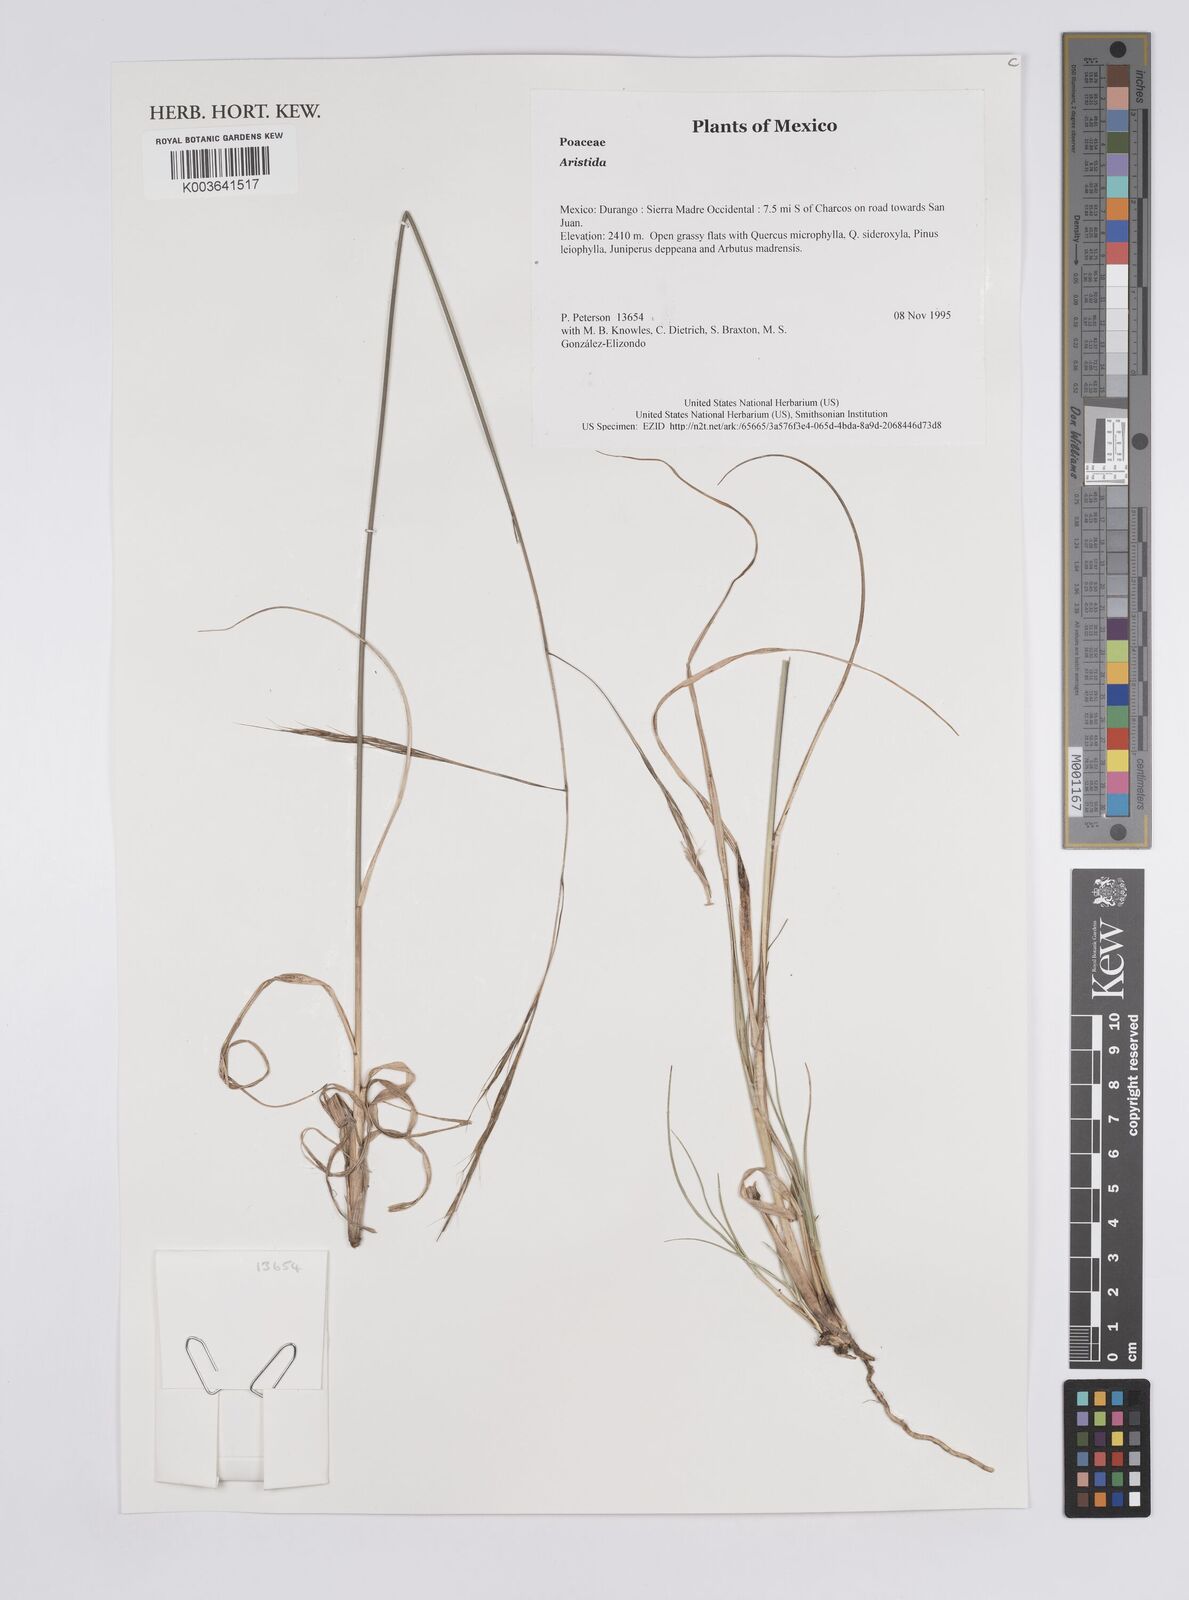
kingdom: Plantae
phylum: Tracheophyta
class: Liliopsida
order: Poales
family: Poaceae
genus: Aristida
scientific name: Aristida
